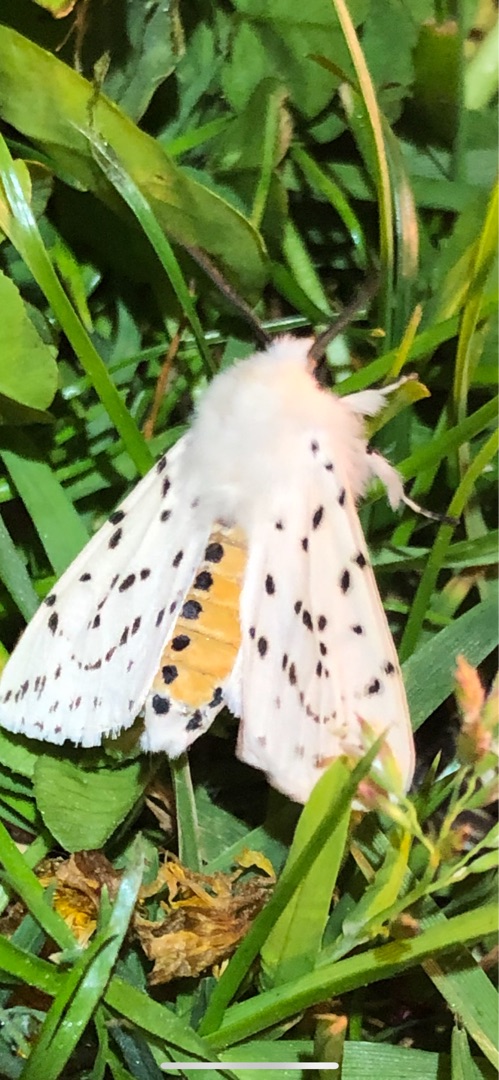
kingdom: Animalia
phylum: Arthropoda
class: Insecta
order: Lepidoptera
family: Erebidae
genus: Spilosoma
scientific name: Spilosoma lubricipeda
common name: Almindelig tigerspinder
